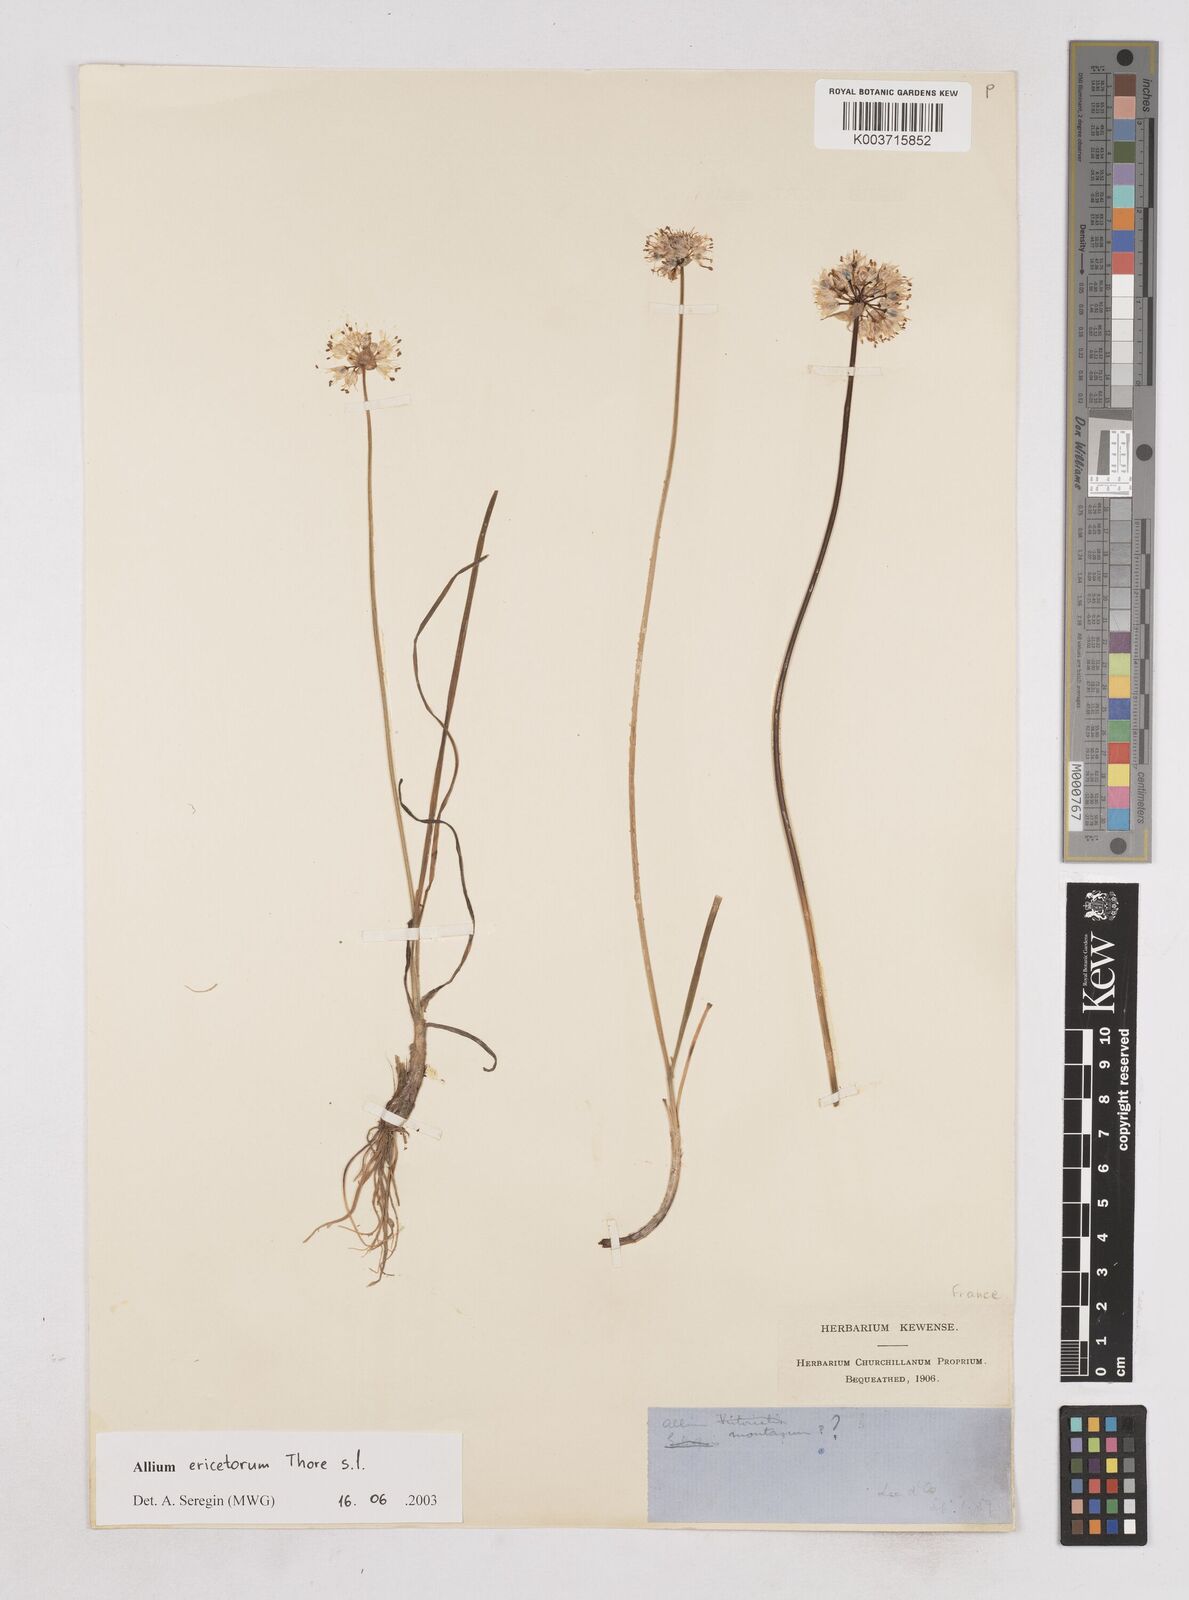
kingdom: Plantae
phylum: Tracheophyta
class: Liliopsida
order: Asparagales
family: Amaryllidaceae
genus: Allium
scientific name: Allium ericetorum
